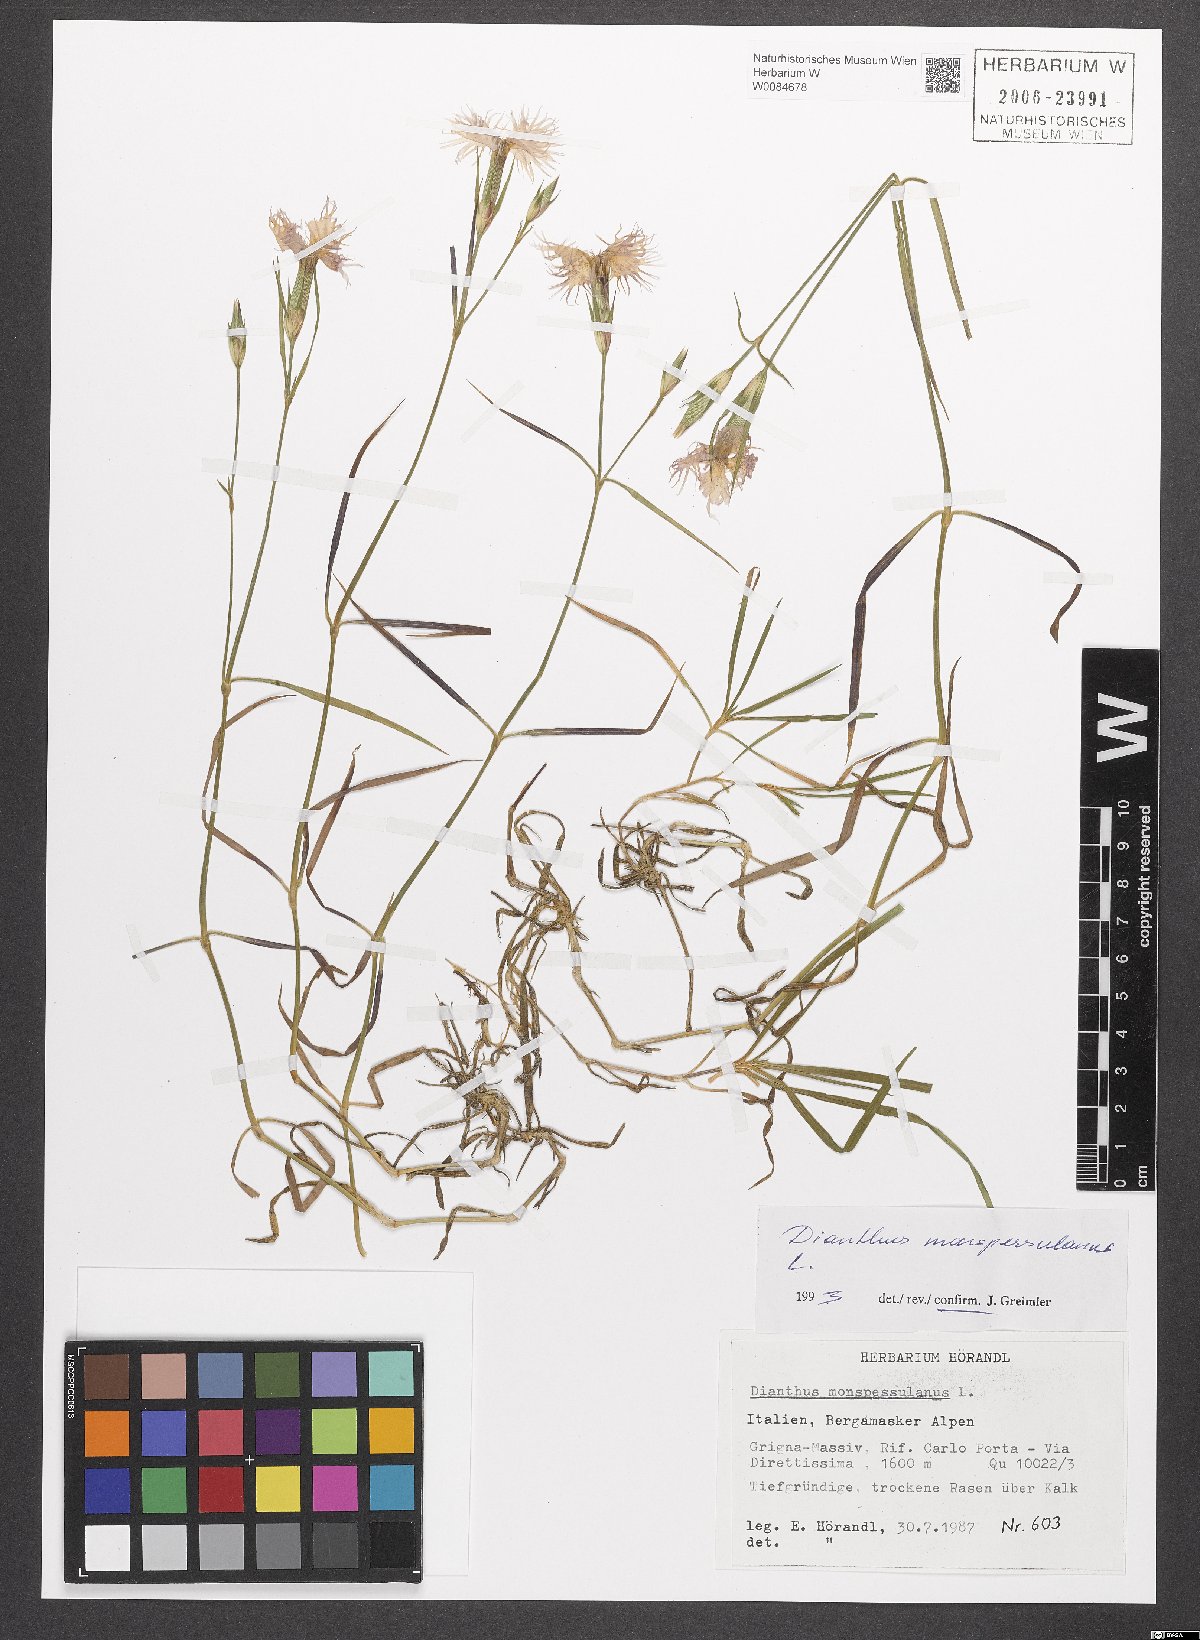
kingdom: Plantae
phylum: Tracheophyta
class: Magnoliopsida
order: Caryophyllales
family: Caryophyllaceae
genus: Dianthus
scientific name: Dianthus hyssopifolius
